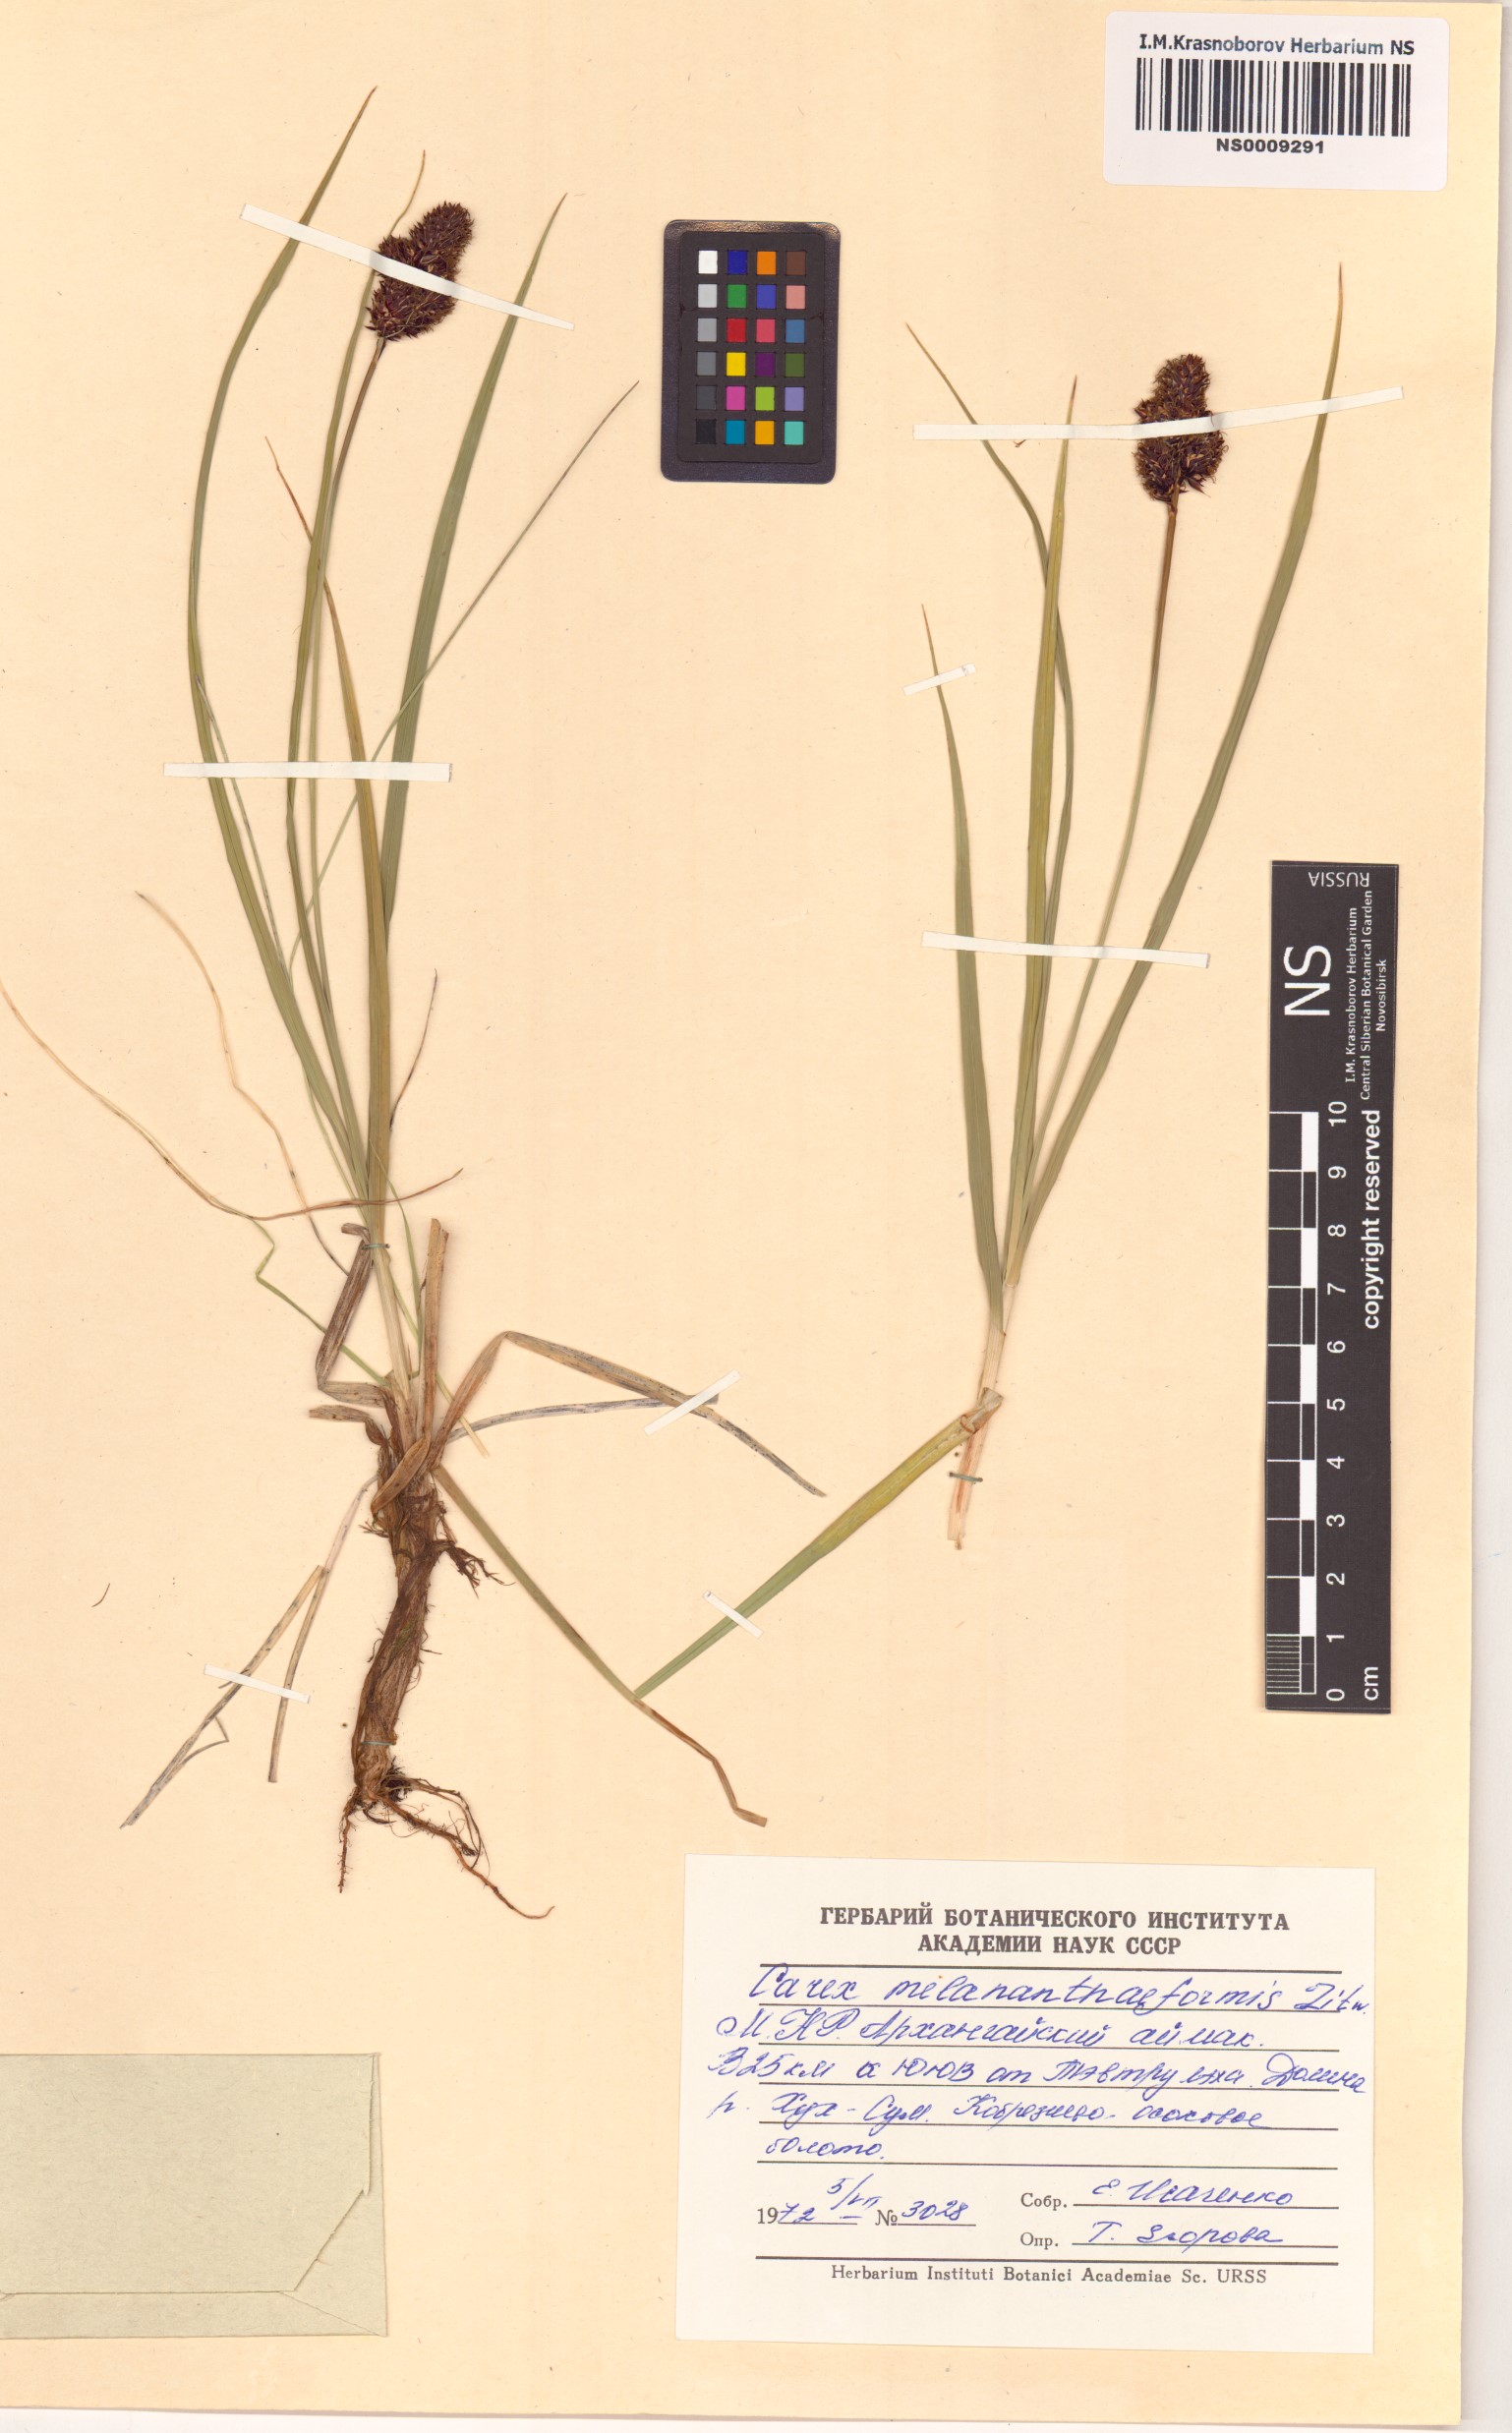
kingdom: Plantae
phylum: Tracheophyta
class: Liliopsida
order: Poales
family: Cyperaceae
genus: Carex
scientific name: Carex melananthiformis
